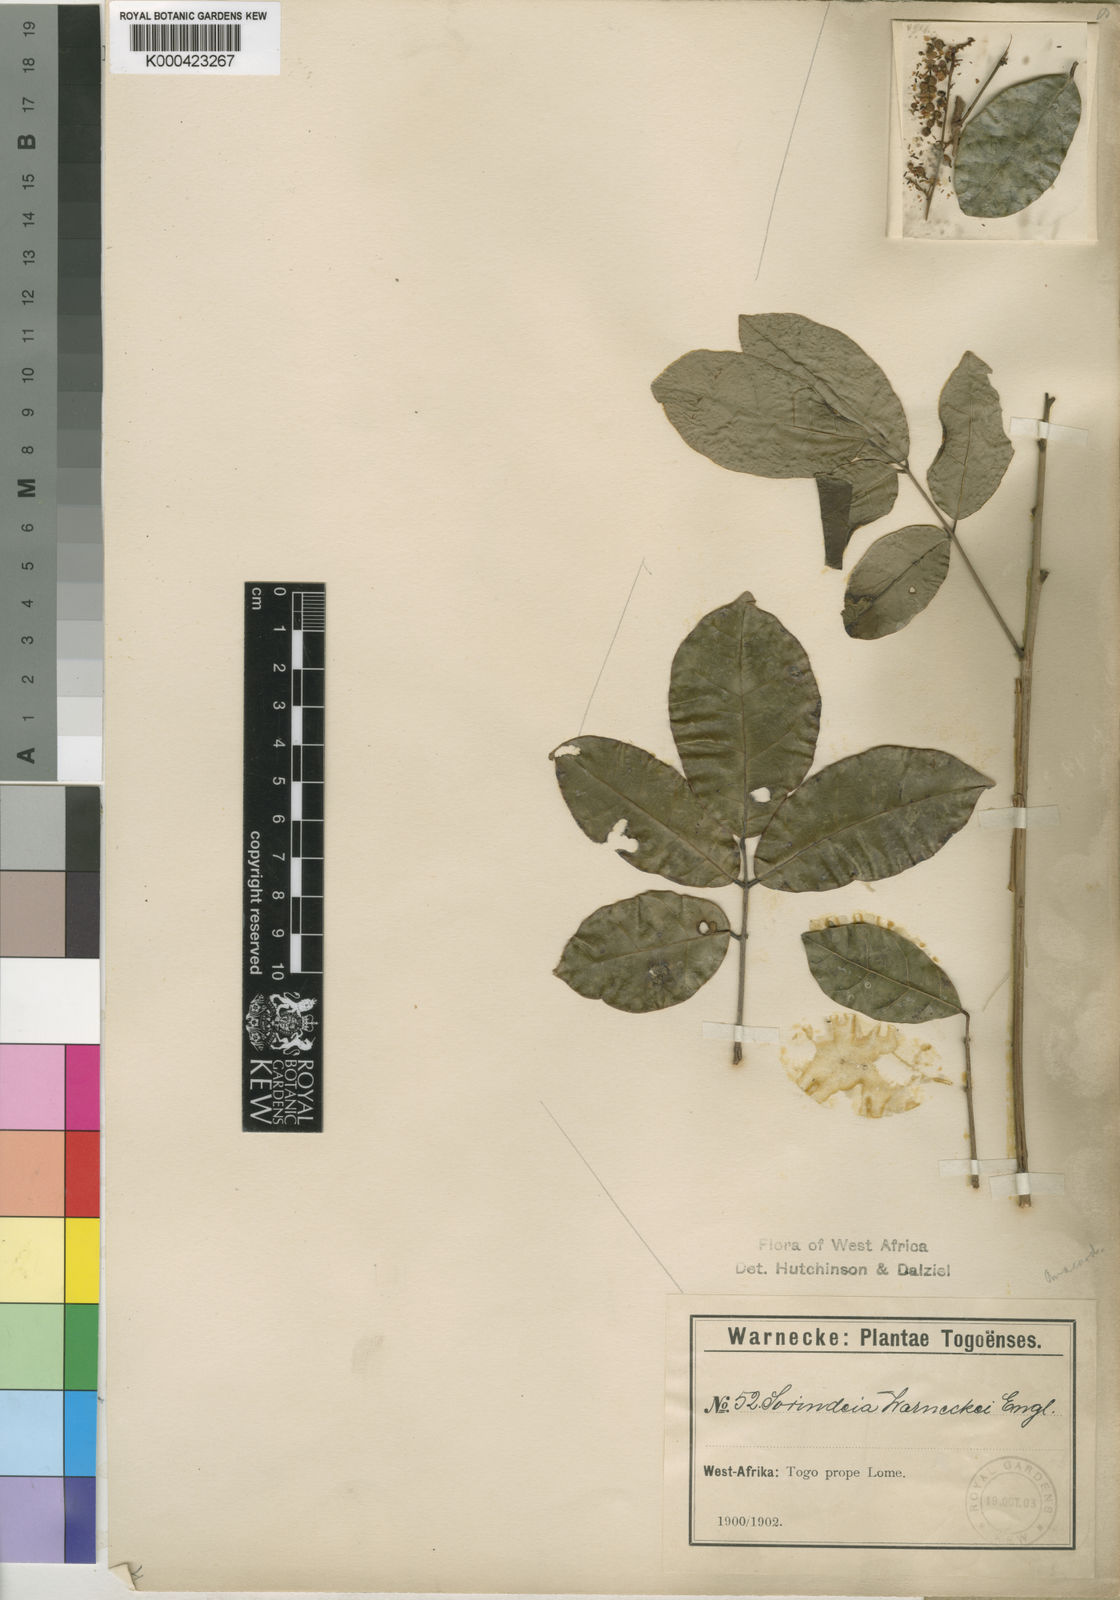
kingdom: Plantae
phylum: Tracheophyta
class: Magnoliopsida
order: Sapindales
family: Anacardiaceae
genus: Sorindeia
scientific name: Sorindeia grandifolia
